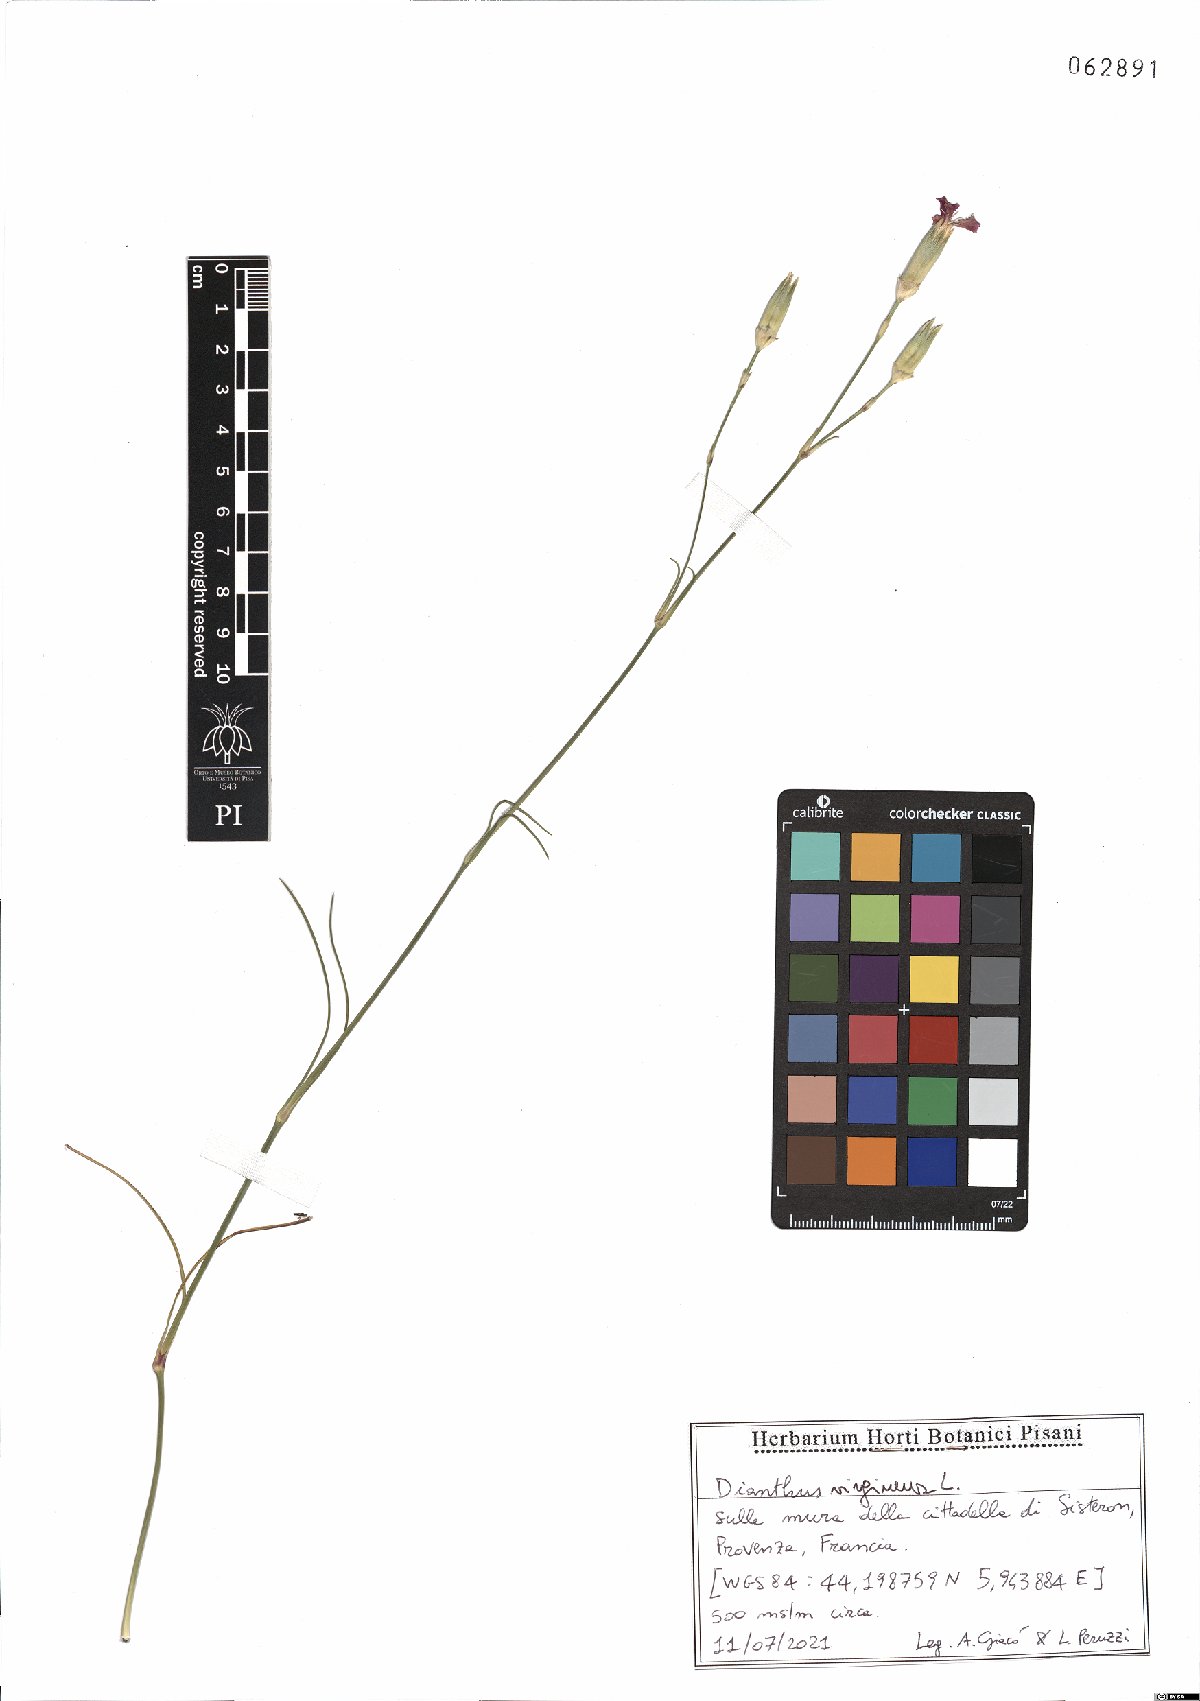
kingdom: Plantae
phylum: Tracheophyta
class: Magnoliopsida
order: Caryophyllales
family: Caryophyllaceae
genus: Dianthus
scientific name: Dianthus virgineus
